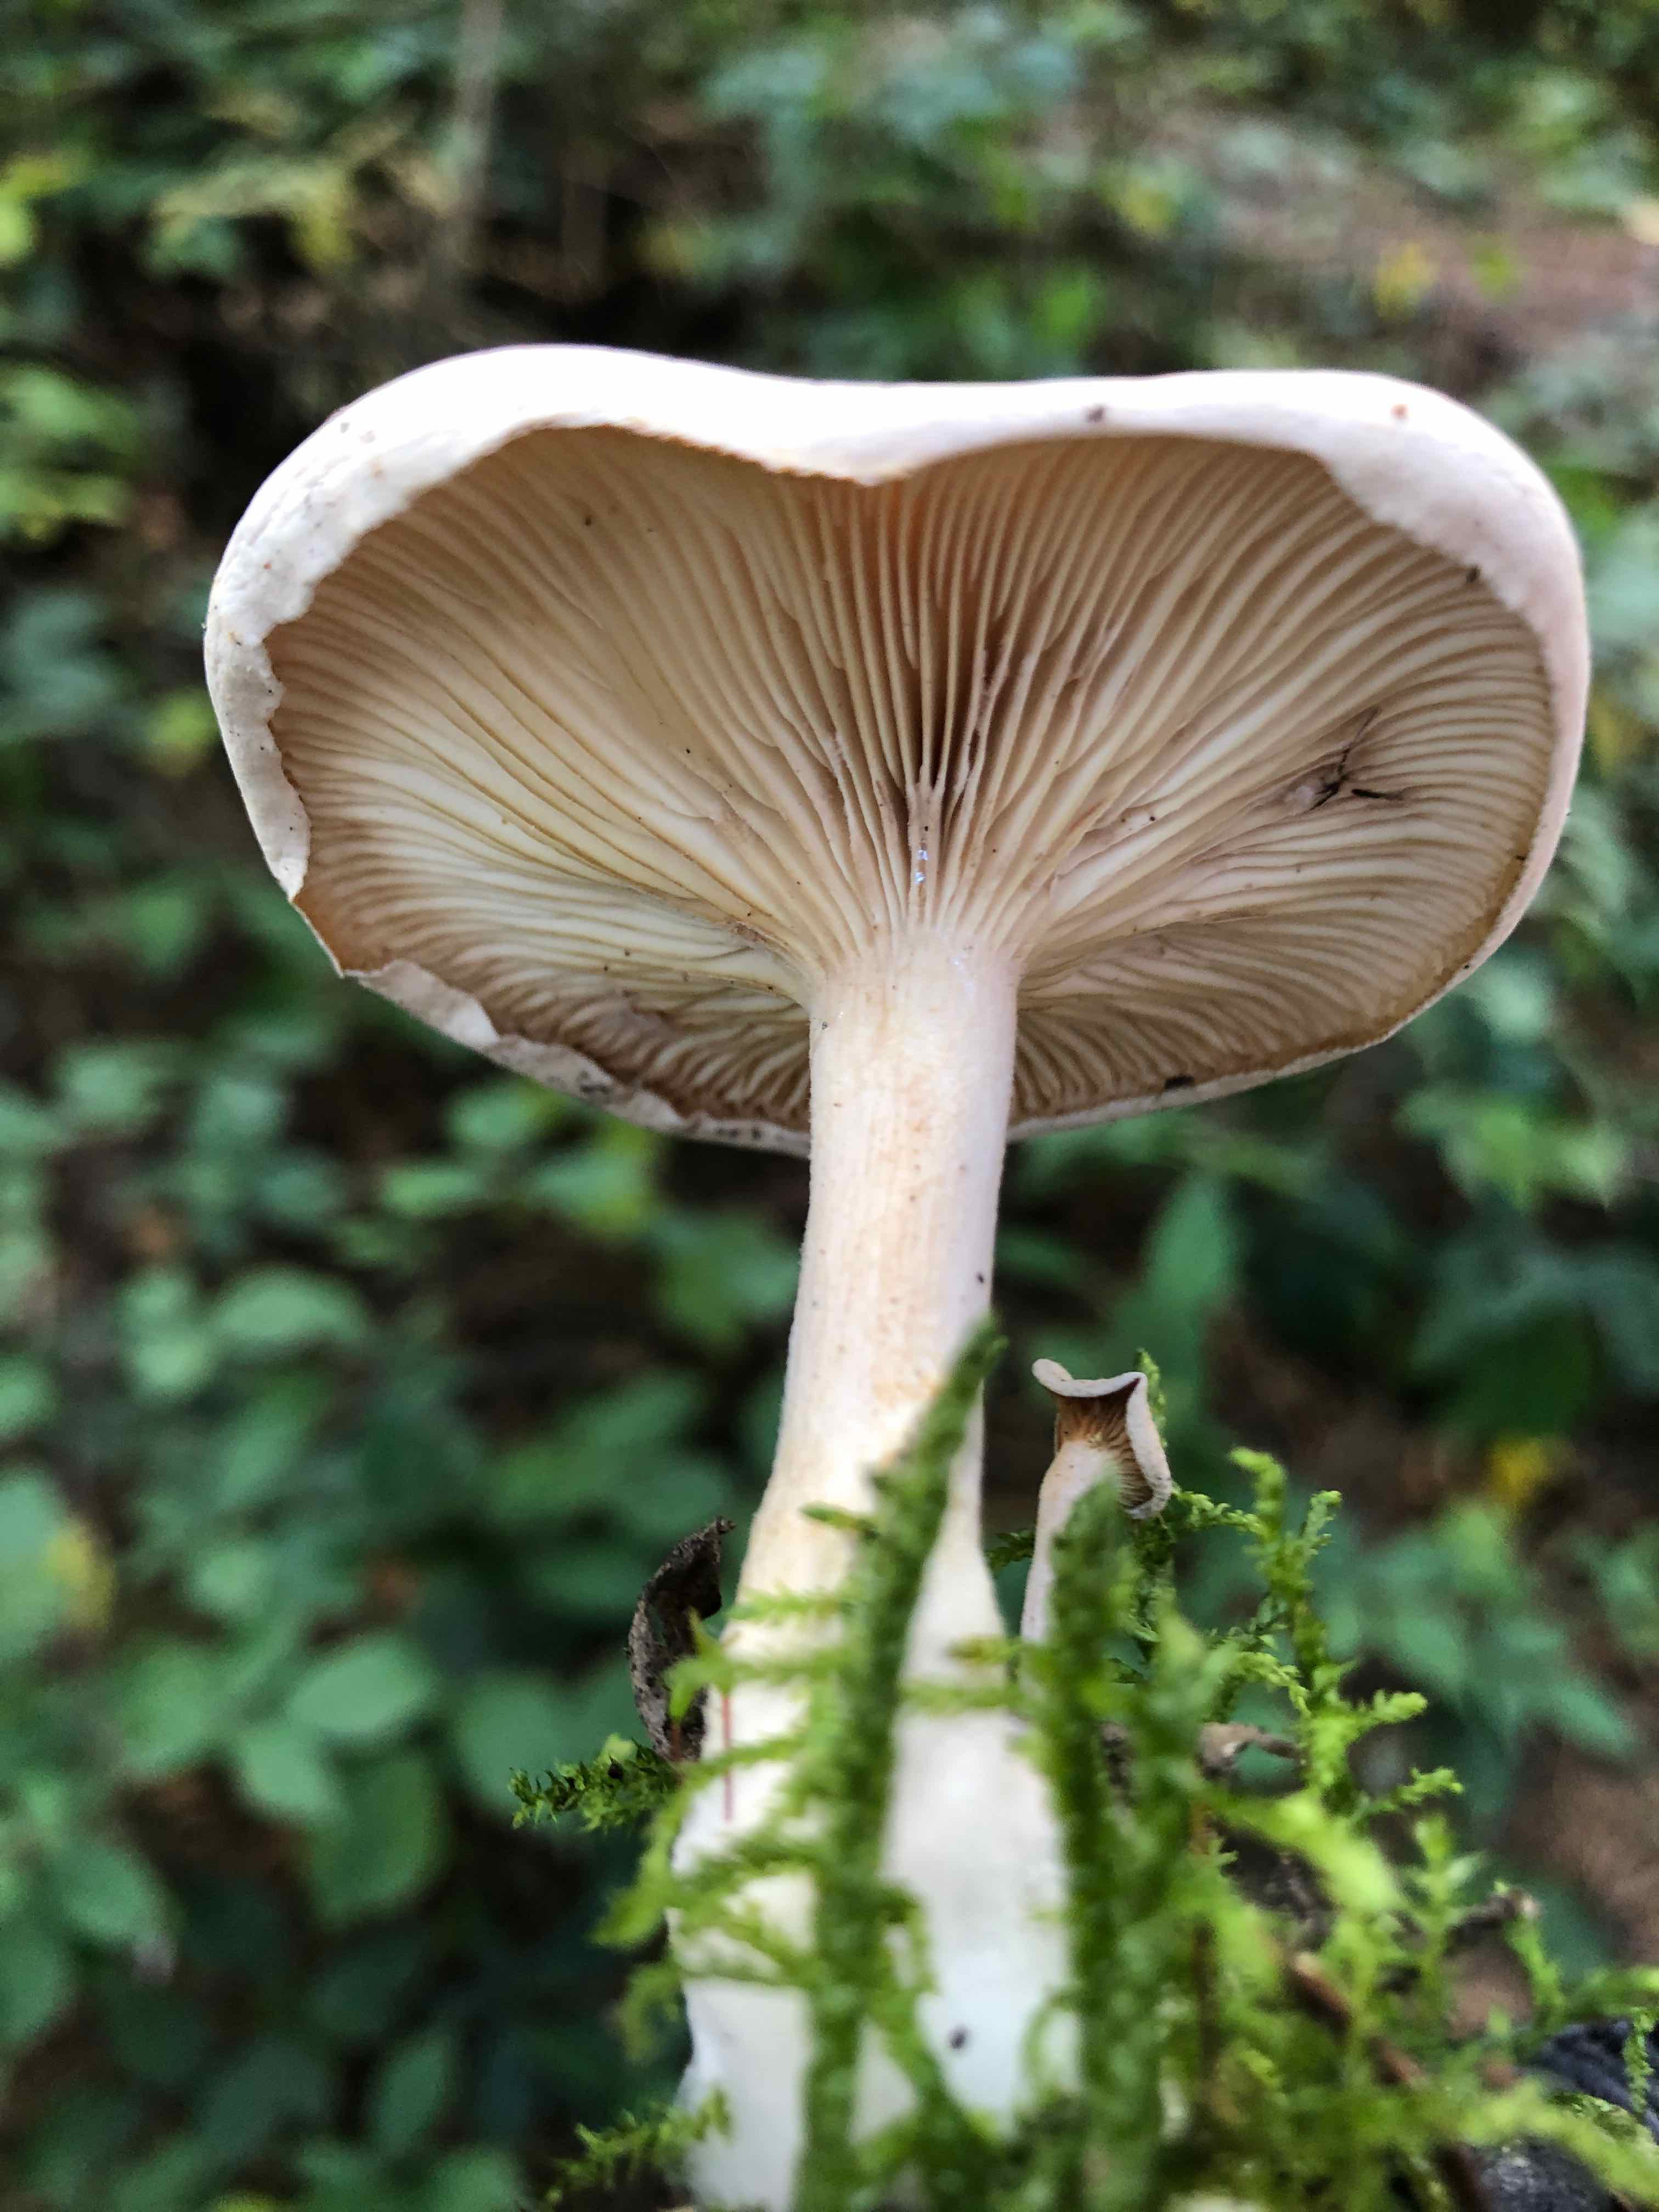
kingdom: Fungi
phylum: Basidiomycota
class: Agaricomycetes
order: Agaricales
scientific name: Agaricales
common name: champignonordenen
